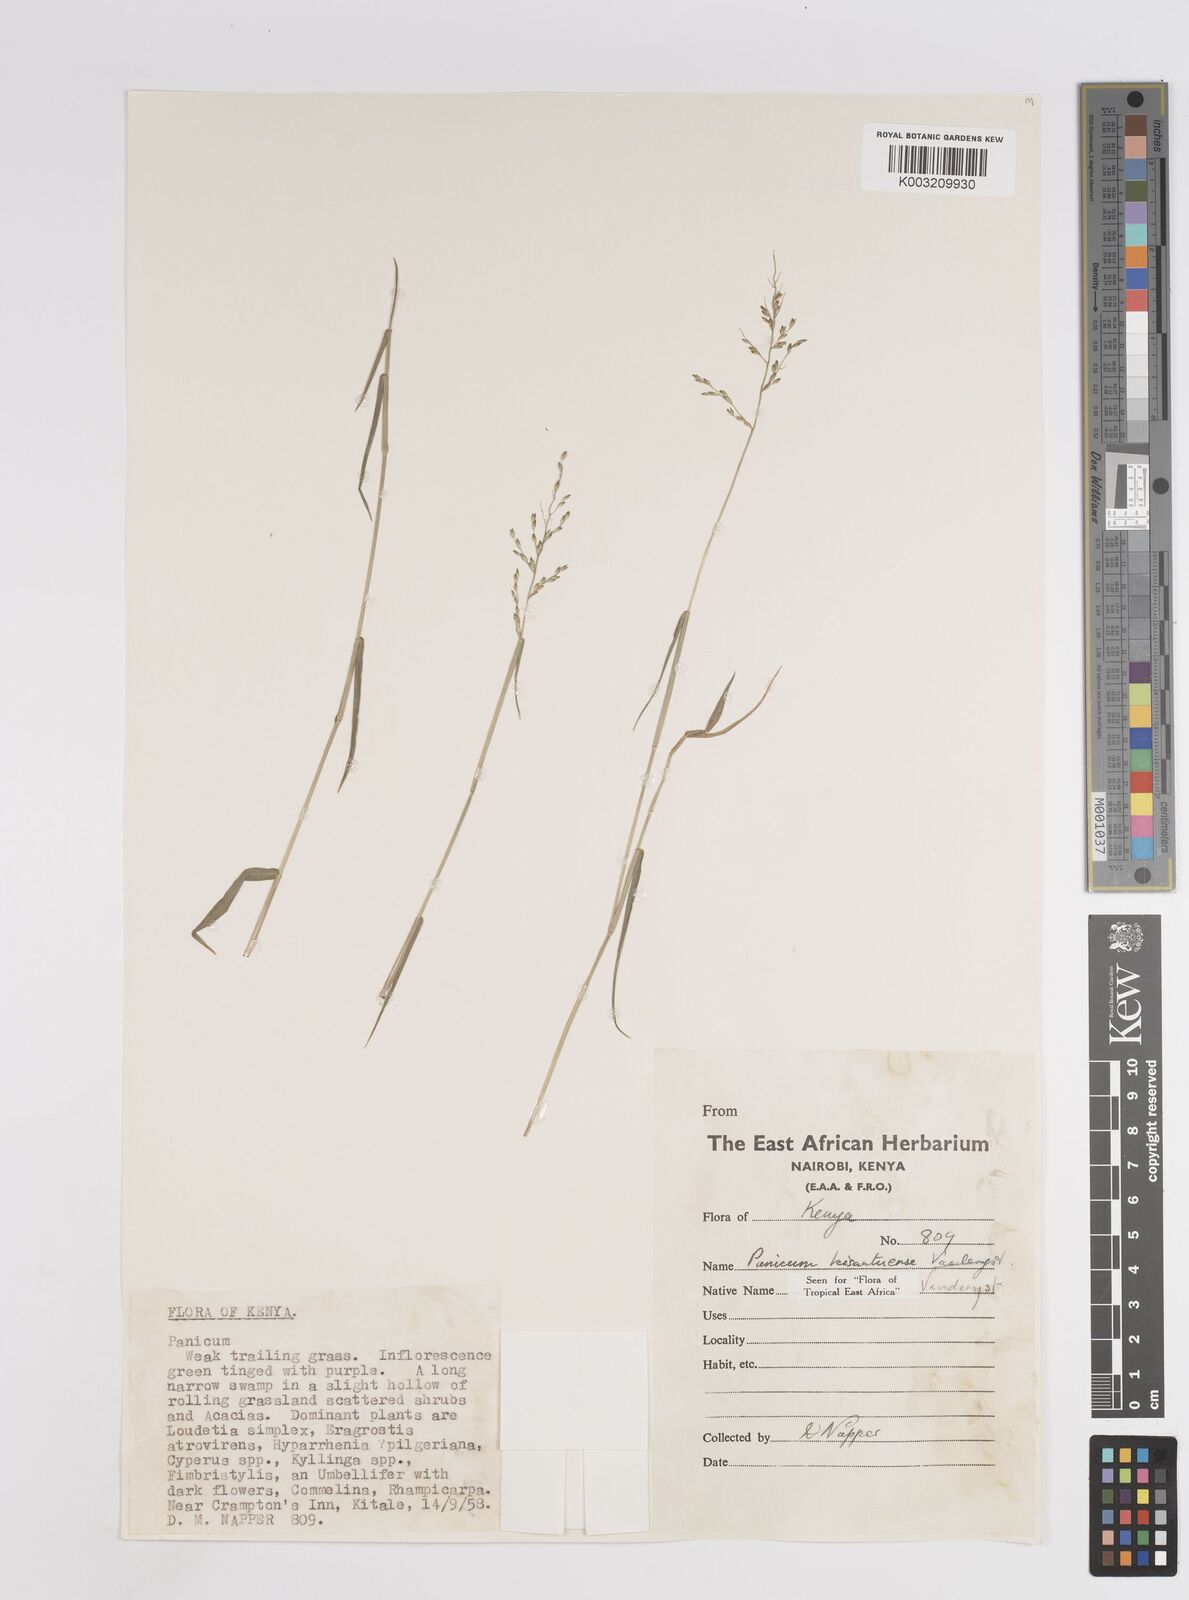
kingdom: Plantae
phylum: Tracheophyta
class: Liliopsida
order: Poales
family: Poaceae
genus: Adenochloa
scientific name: Adenochloa hymeniochila
